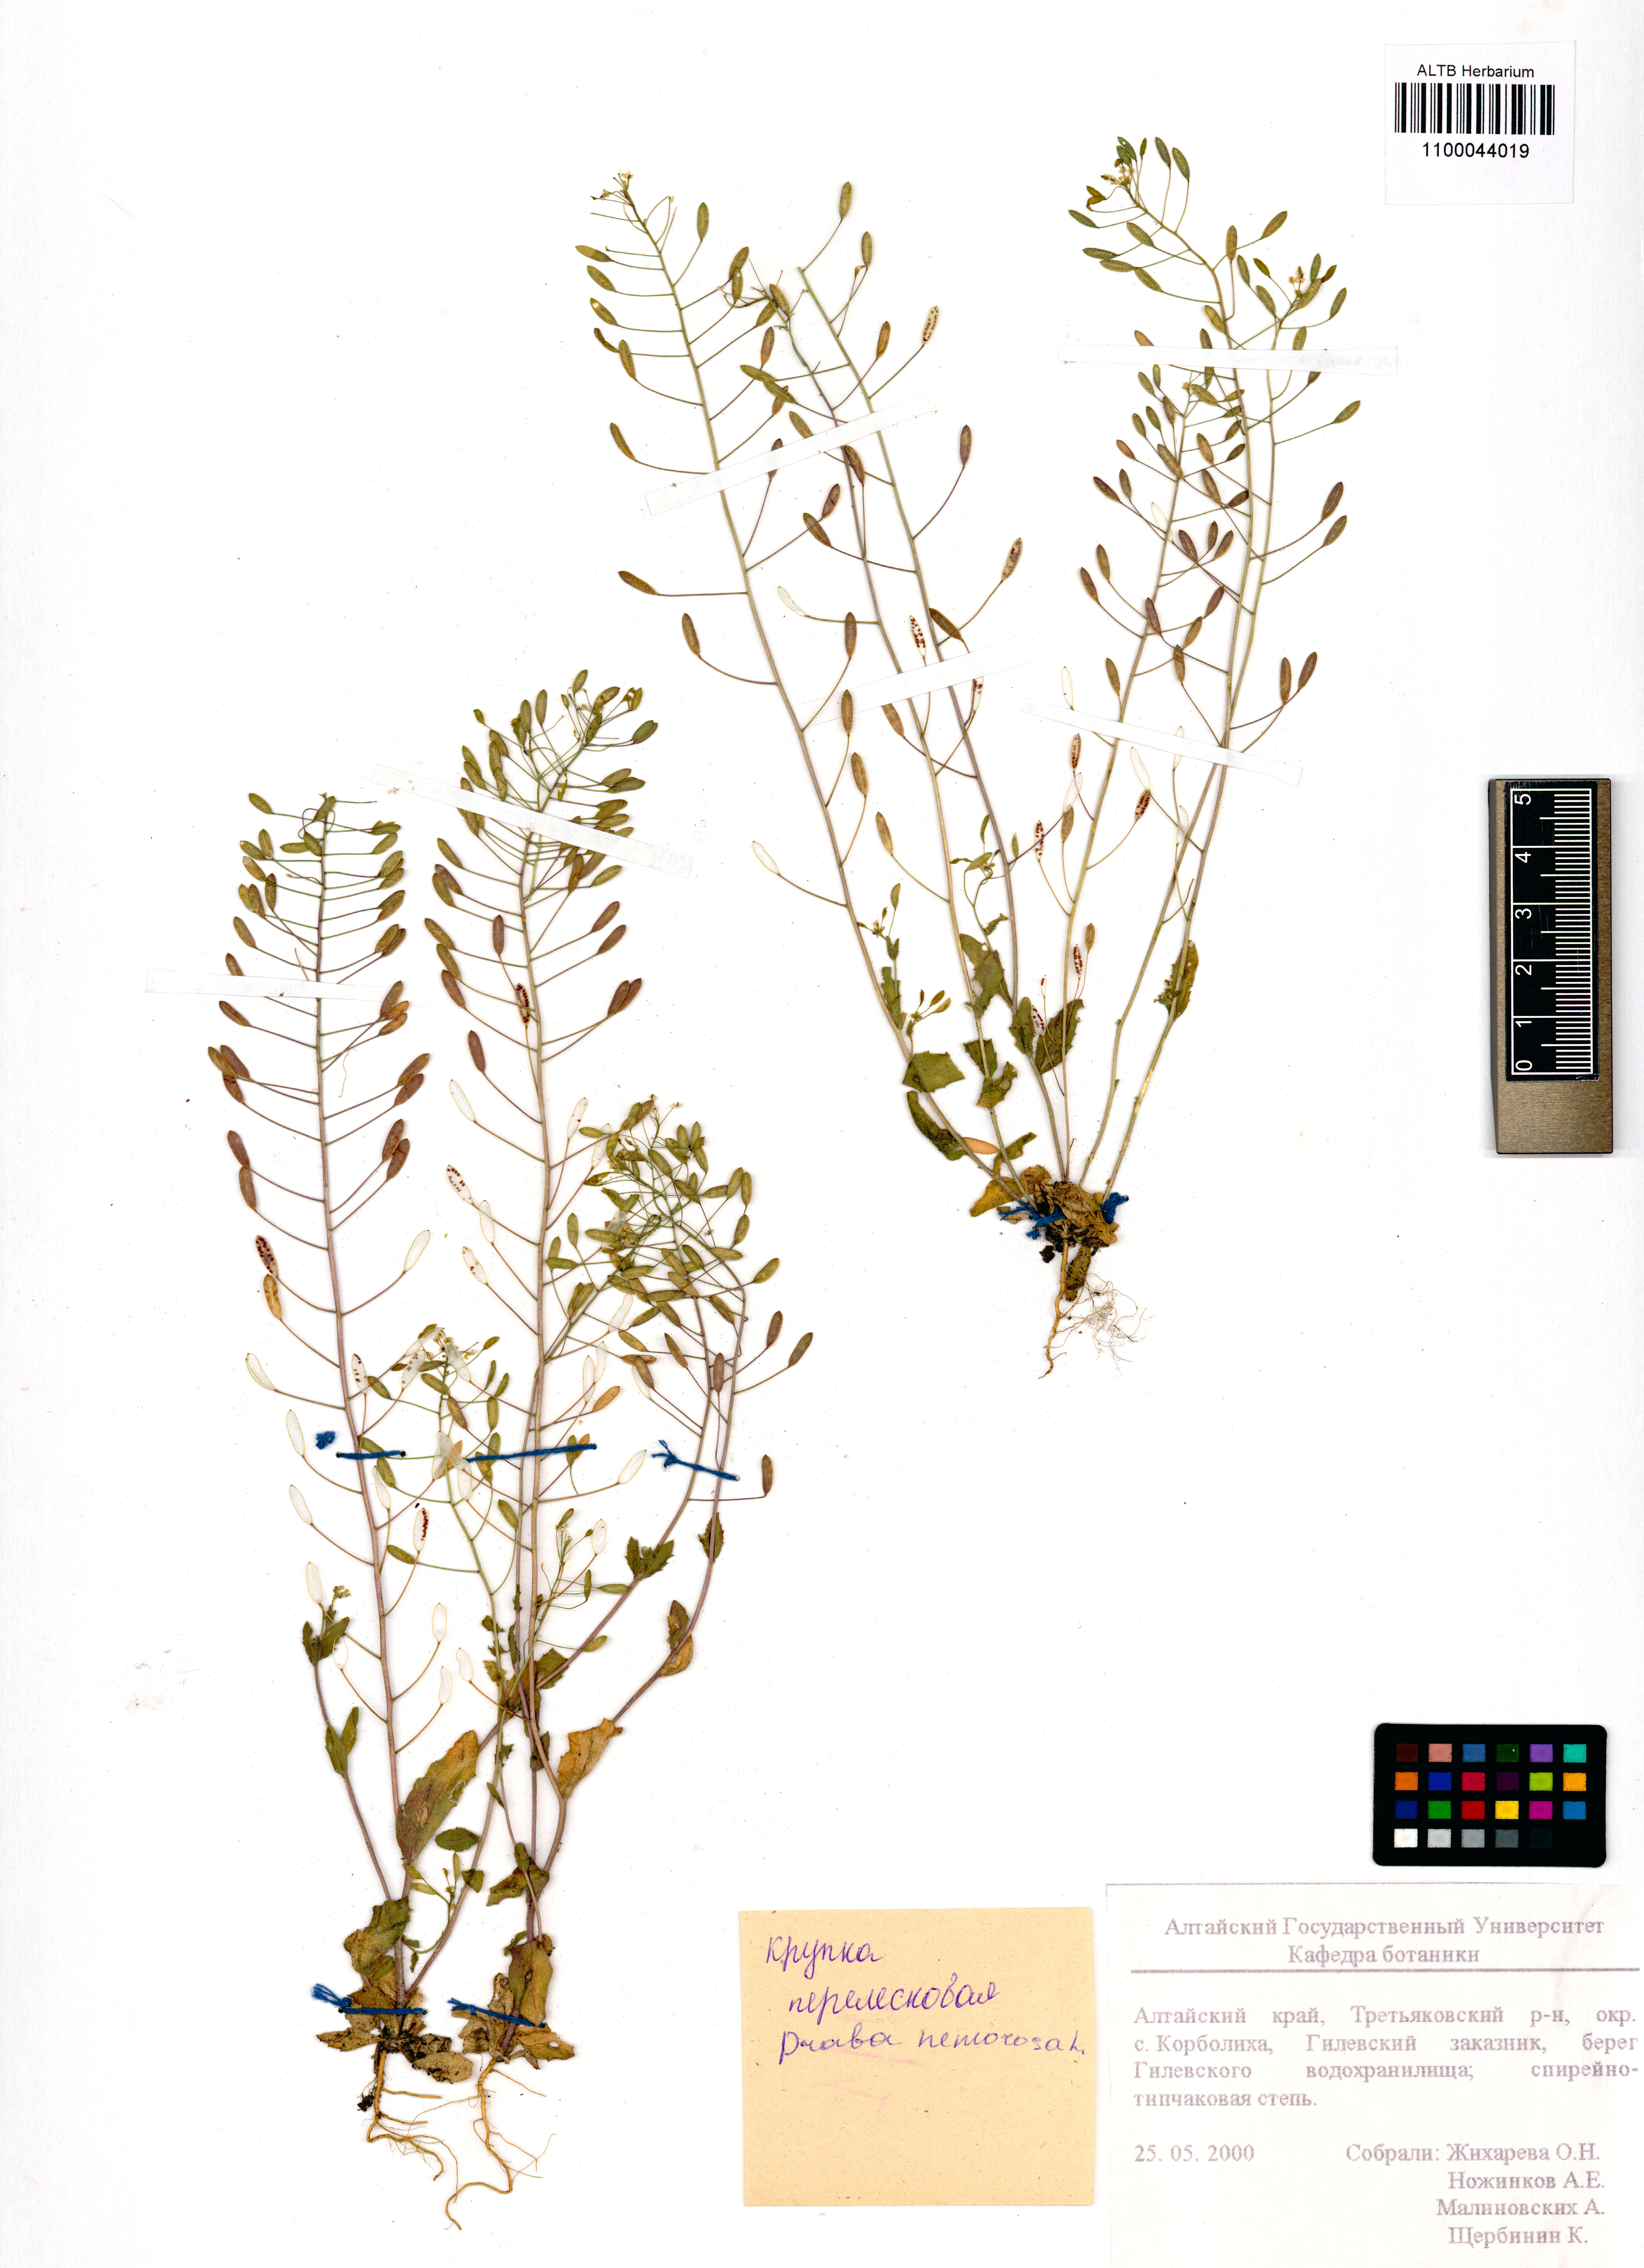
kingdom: Plantae
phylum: Tracheophyta
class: Magnoliopsida
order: Brassicales
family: Brassicaceae
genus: Draba
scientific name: Draba nemorosa
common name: Wood whitlow-grass
